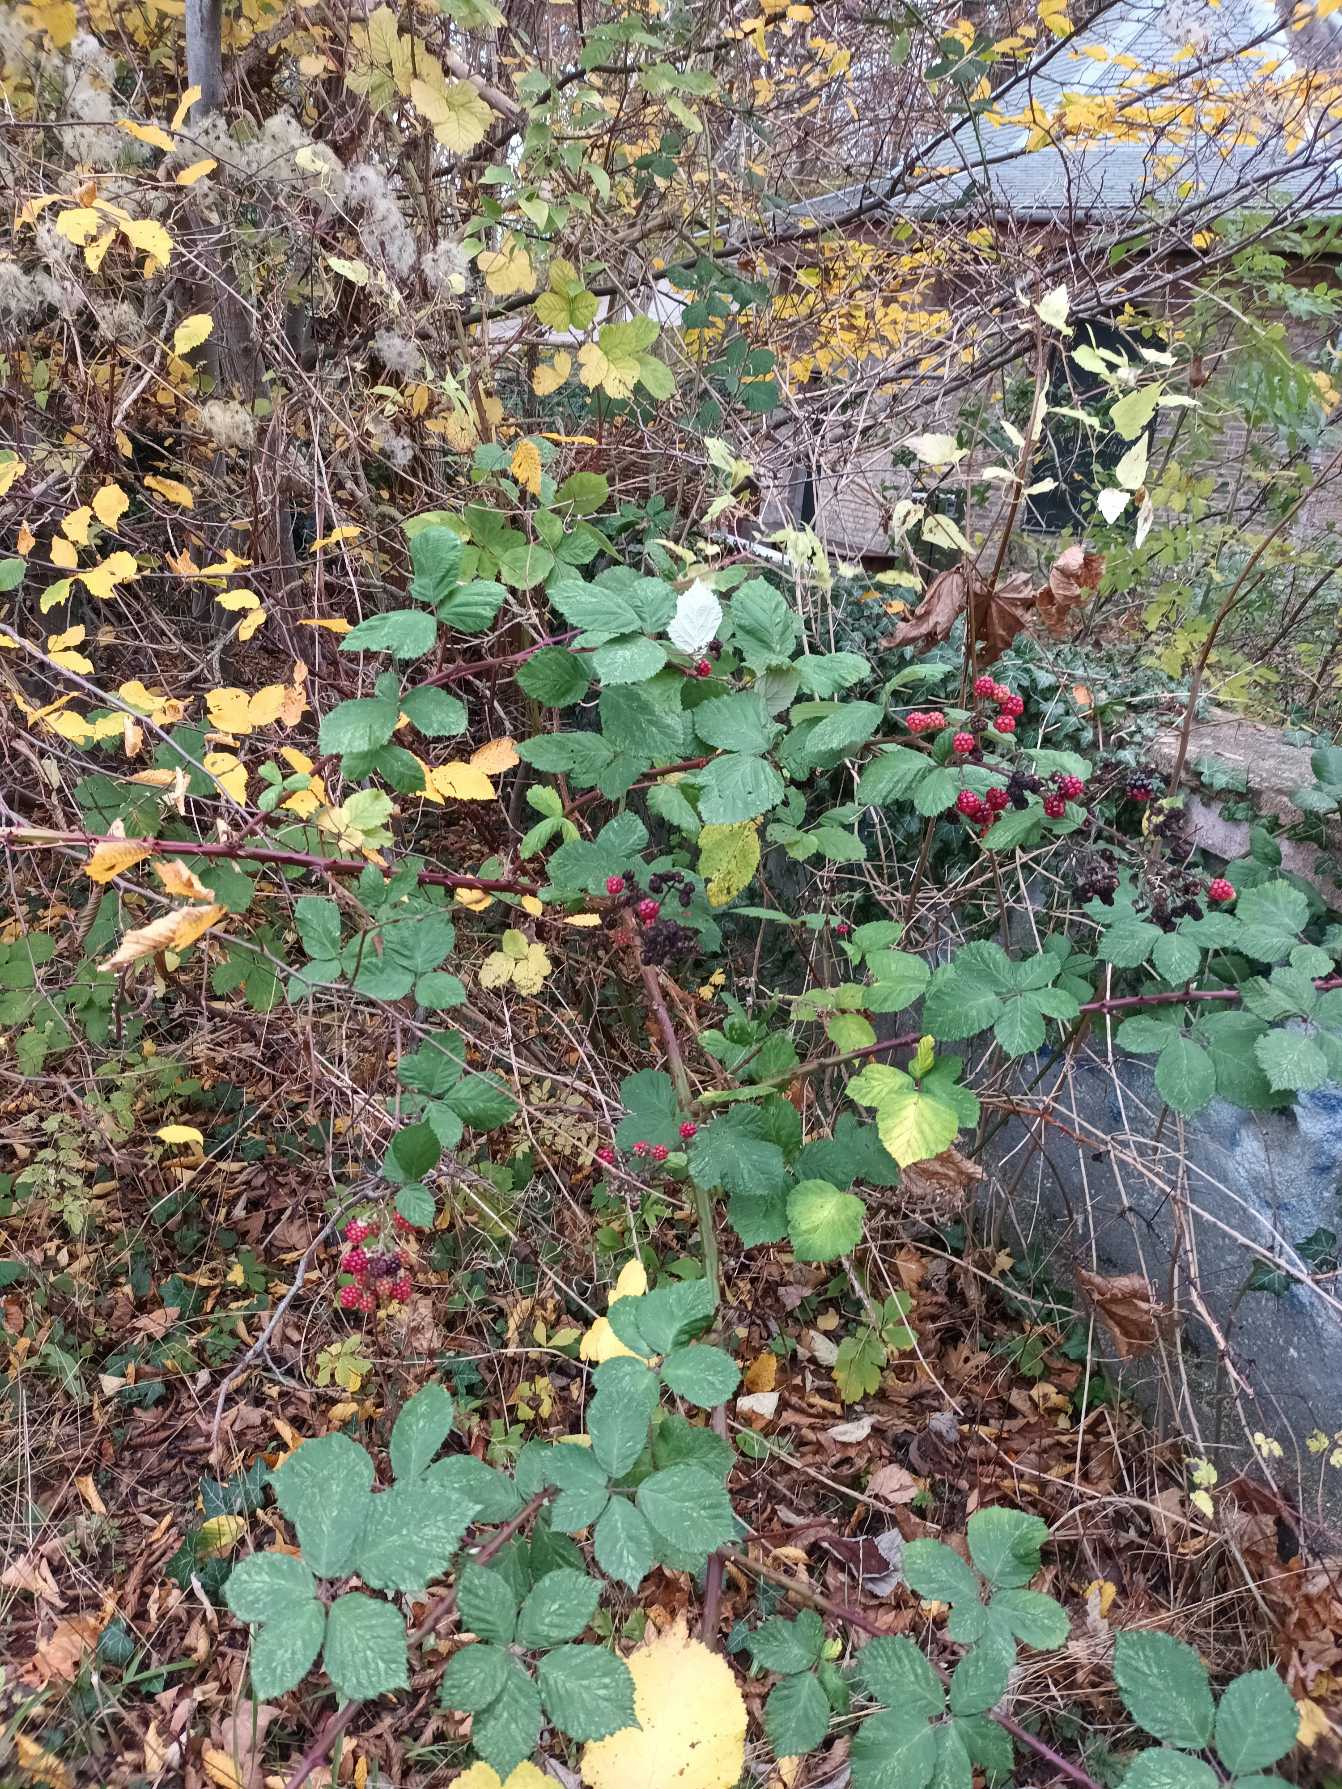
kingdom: Plantae
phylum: Tracheophyta
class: Magnoliopsida
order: Rosales
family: Rosaceae
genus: Rubus
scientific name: Rubus armeniacus
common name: Armensk brombær
